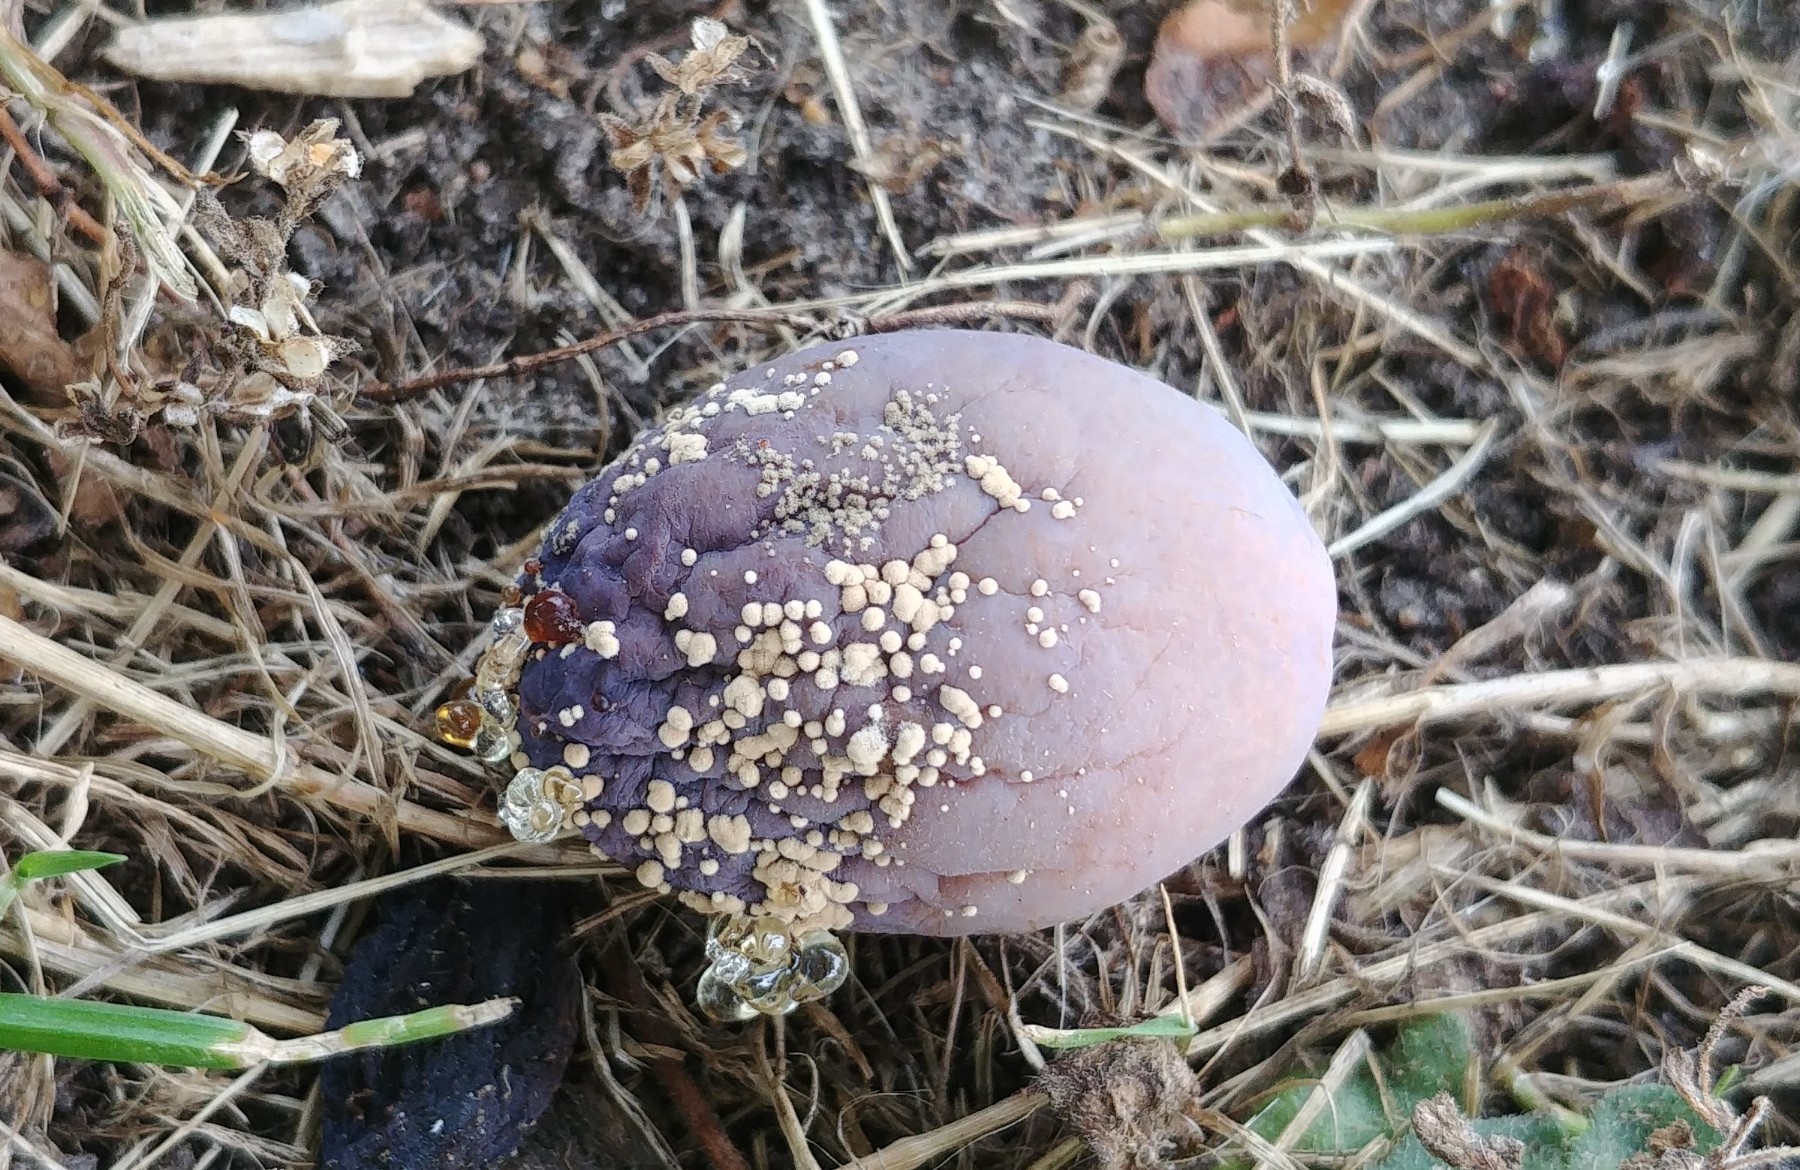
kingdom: Fungi
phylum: Ascomycota
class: Leotiomycetes
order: Helotiales
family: Sclerotiniaceae
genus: Monilinia
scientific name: Monilinia laxa
